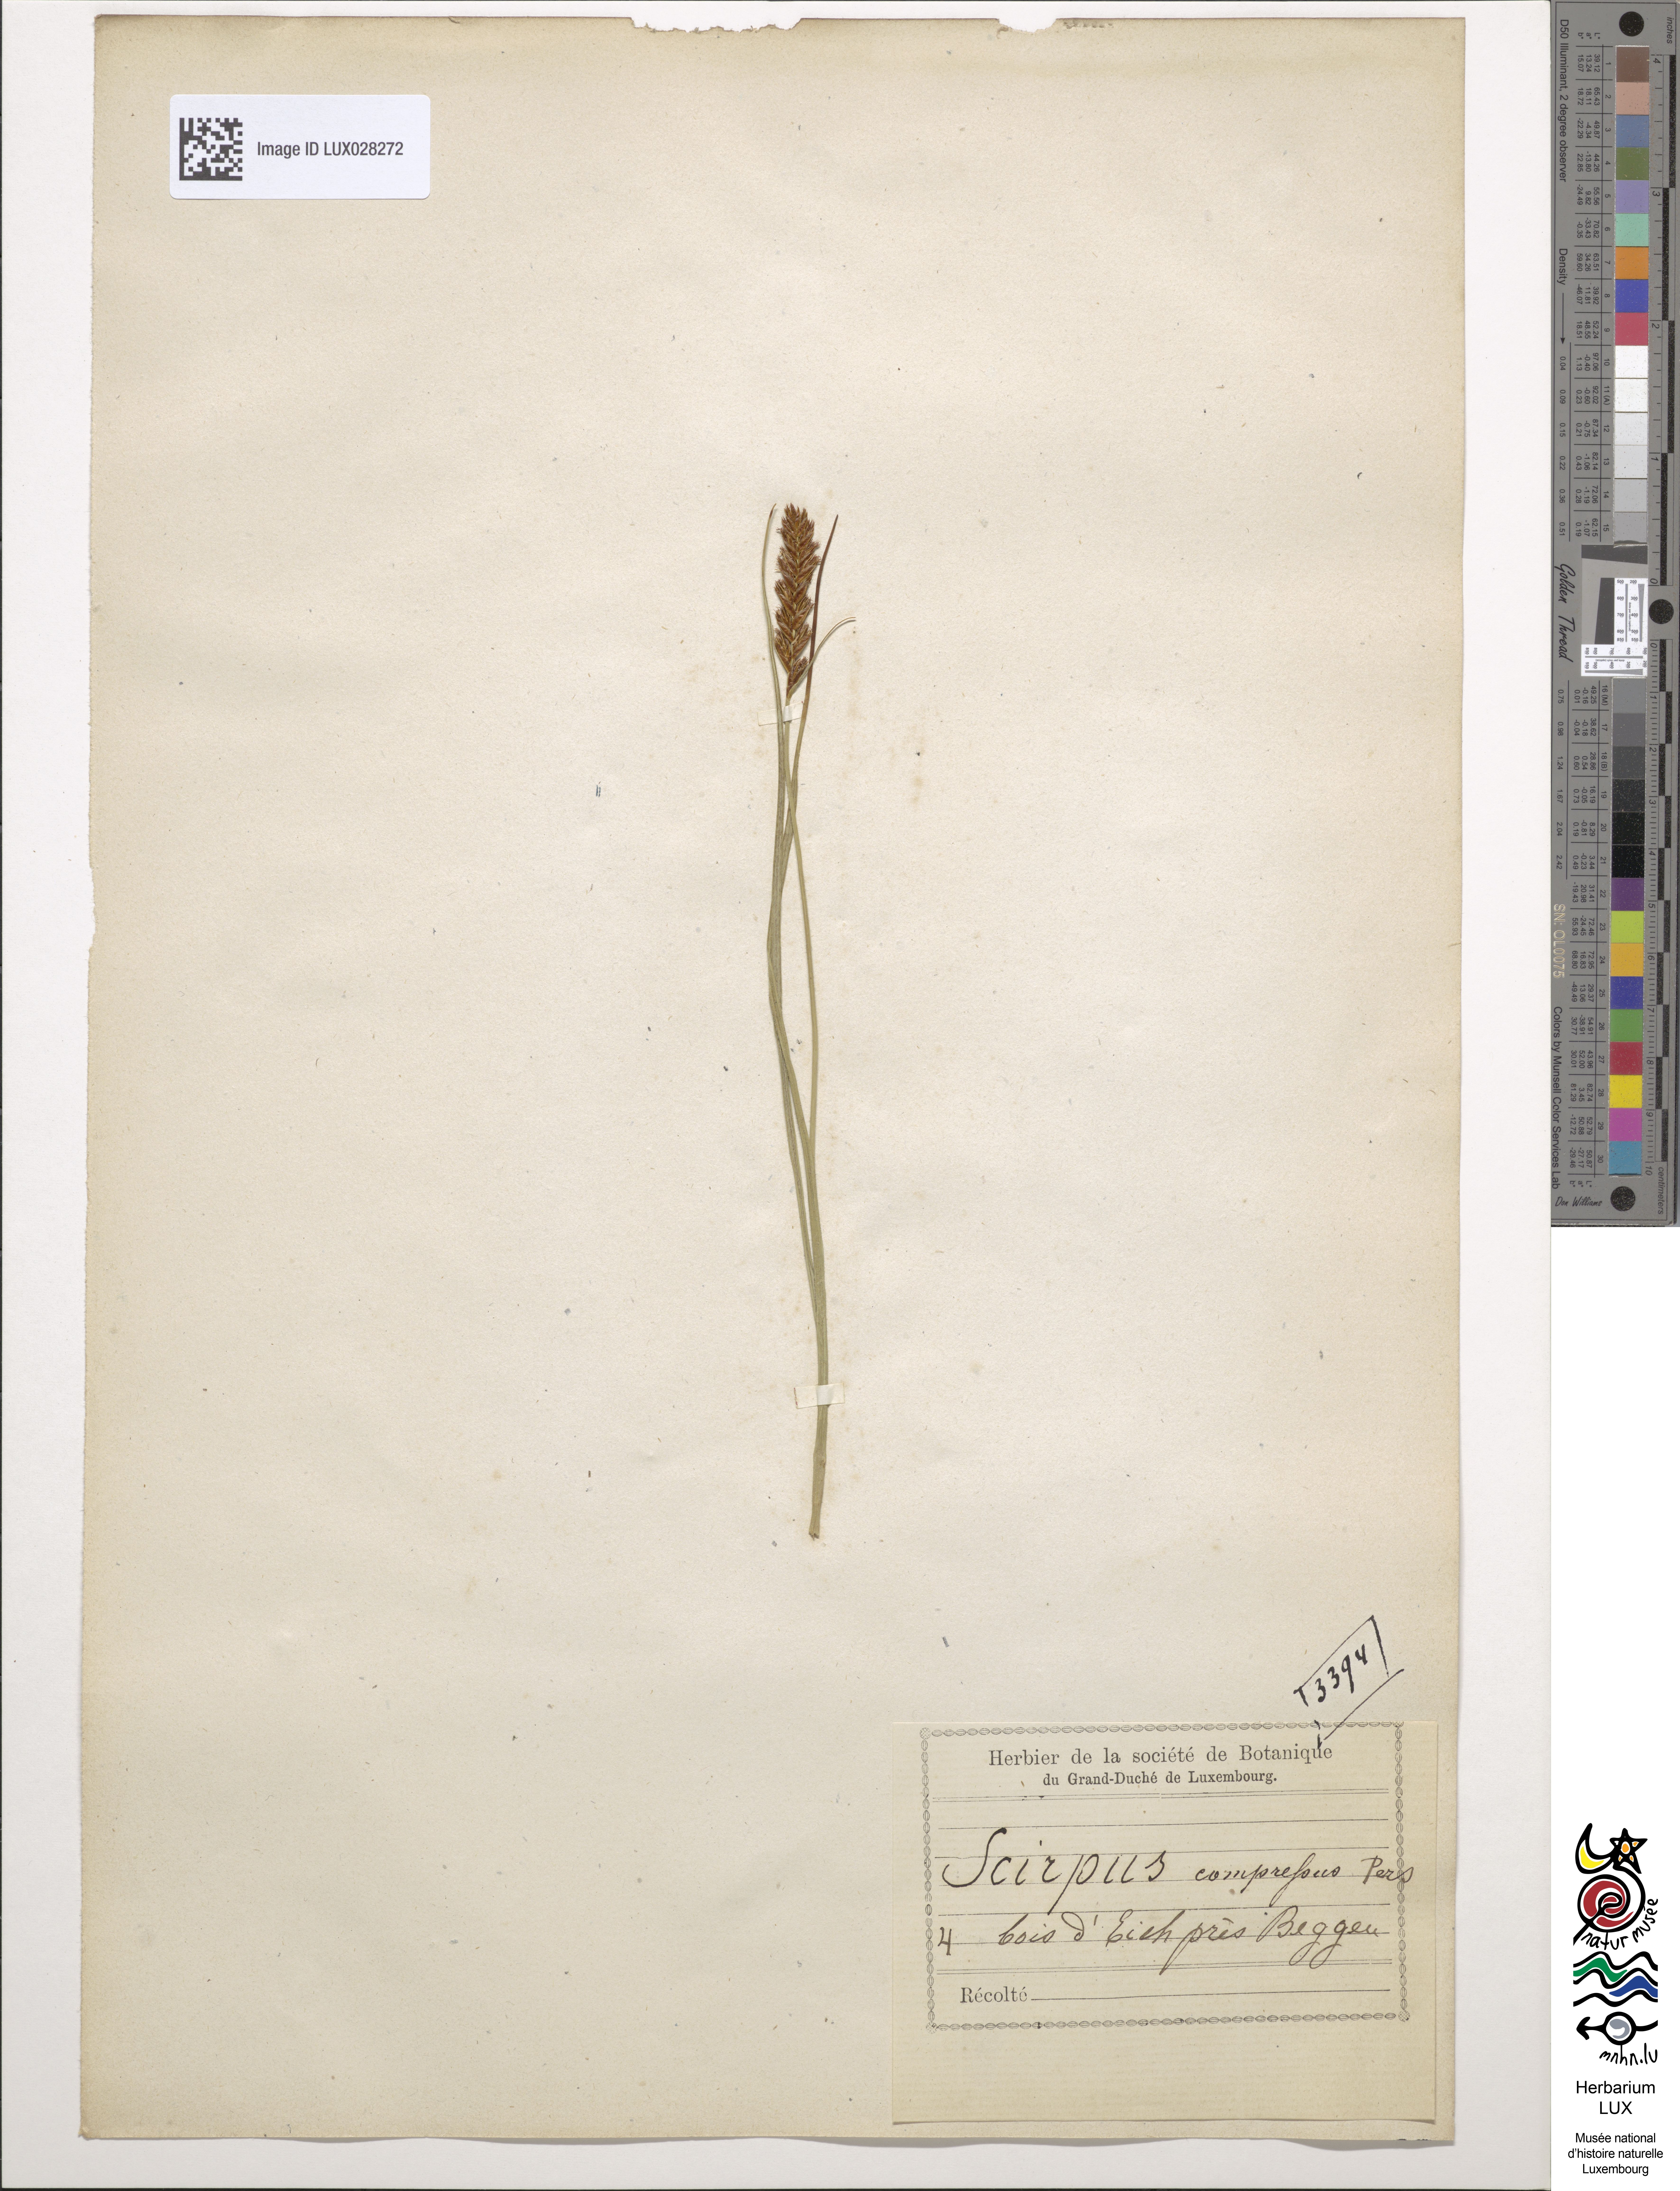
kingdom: Plantae
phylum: Tracheophyta
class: Liliopsida
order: Poales
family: Cyperaceae
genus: Blysmus
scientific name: Blysmus compressus
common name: Flat-sedge
